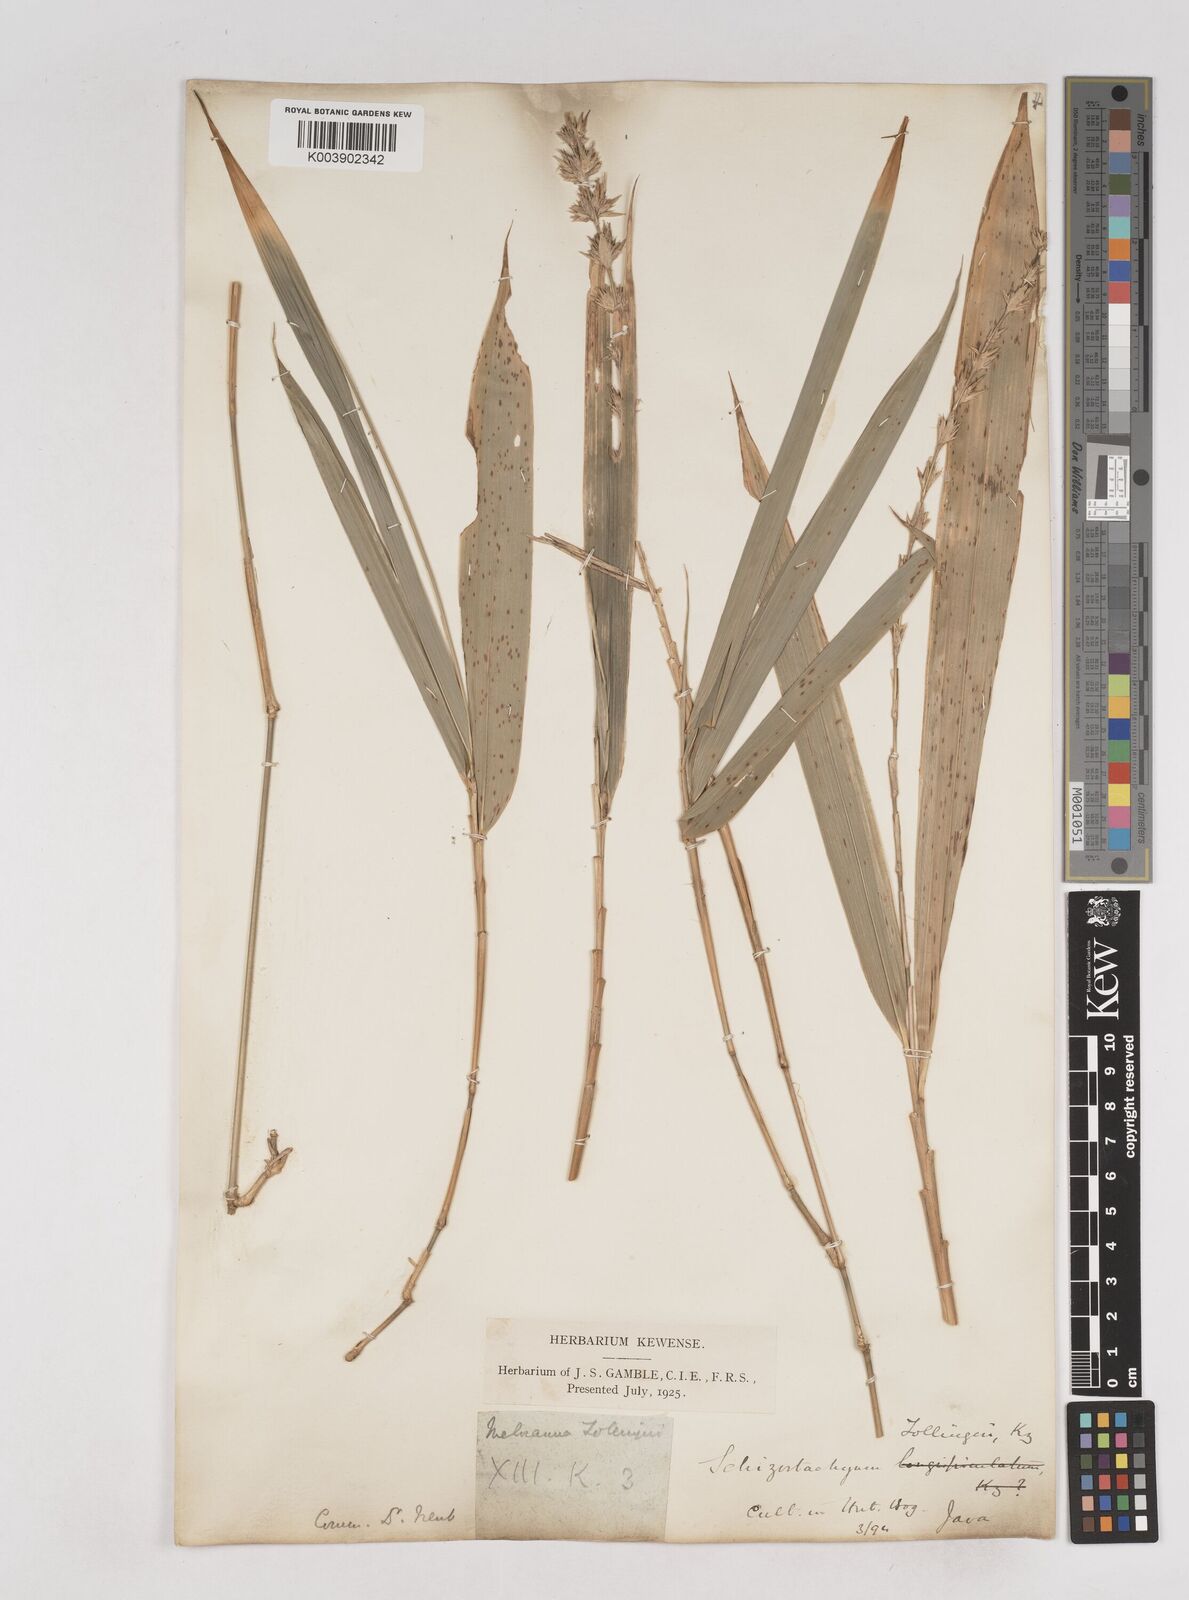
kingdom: Plantae
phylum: Tracheophyta
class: Liliopsida
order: Poales
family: Poaceae
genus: Schizostachyum
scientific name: Schizostachyum zollingeri
